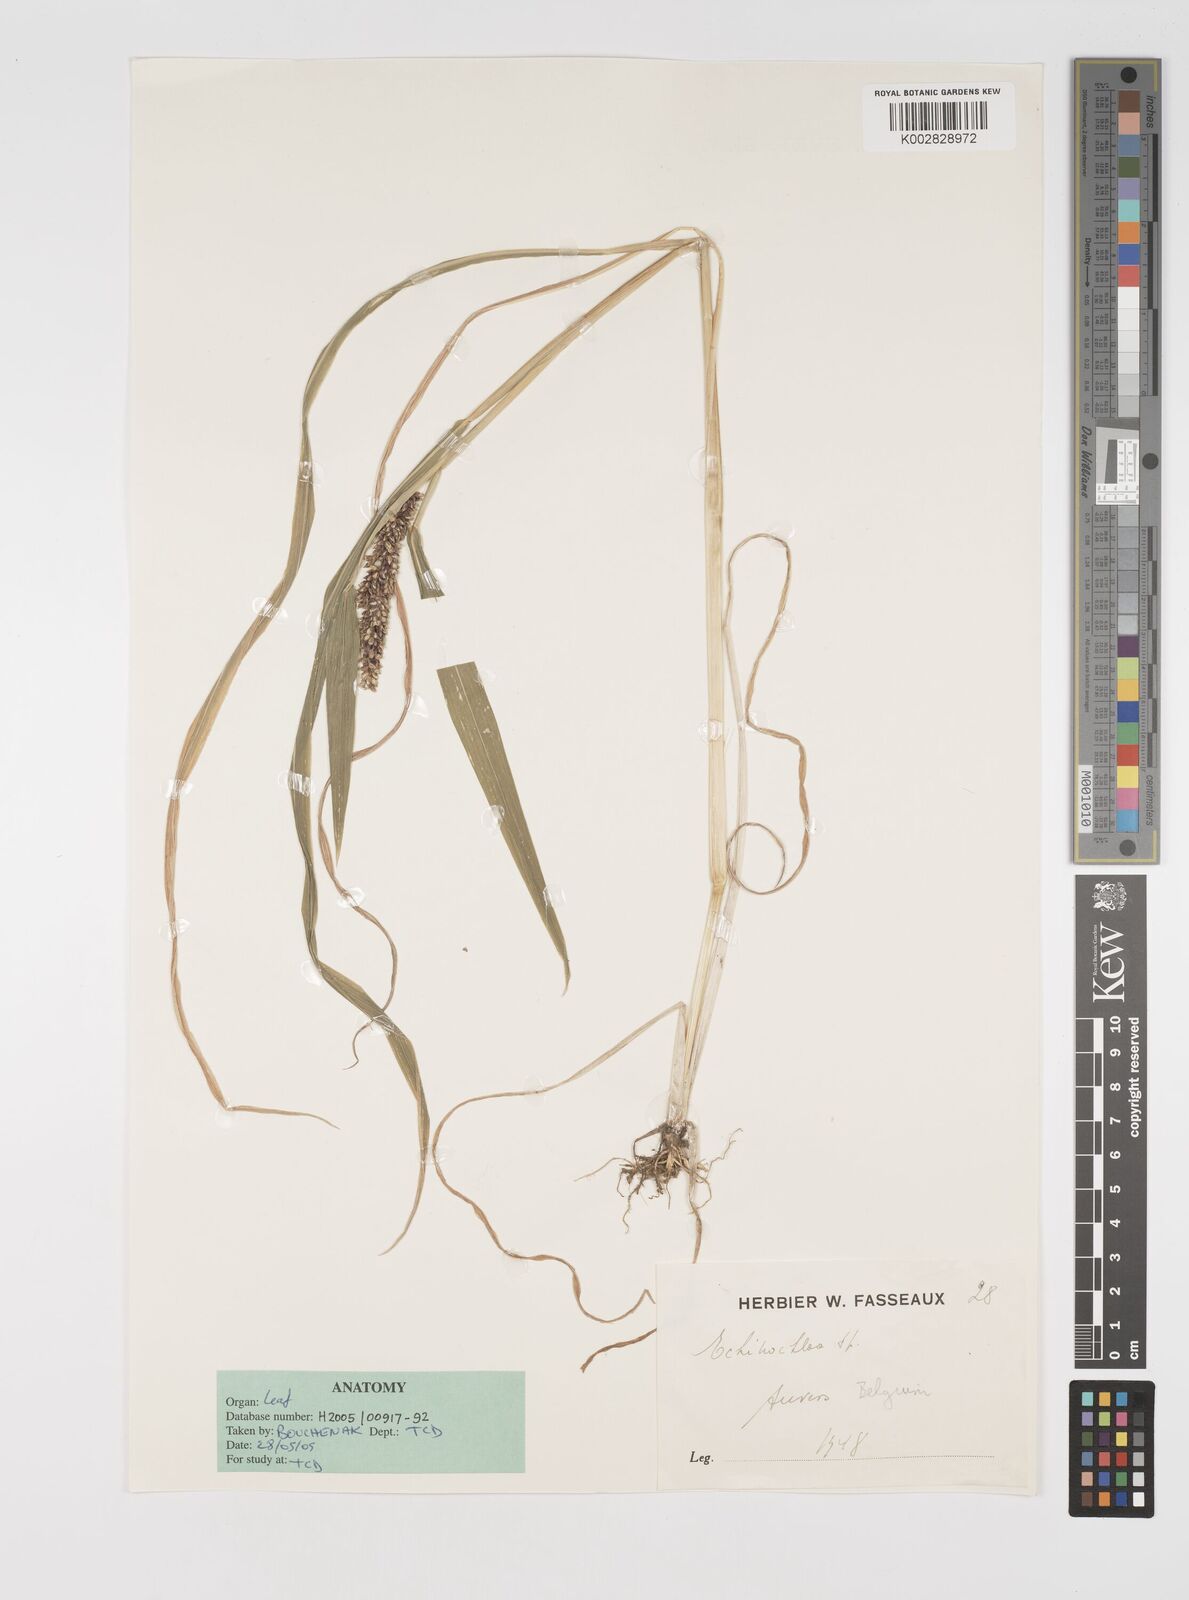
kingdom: Plantae
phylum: Tracheophyta
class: Liliopsida
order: Poales
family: Poaceae
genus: Echinochloa
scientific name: Echinochloa crus-galli
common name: Cockspur
